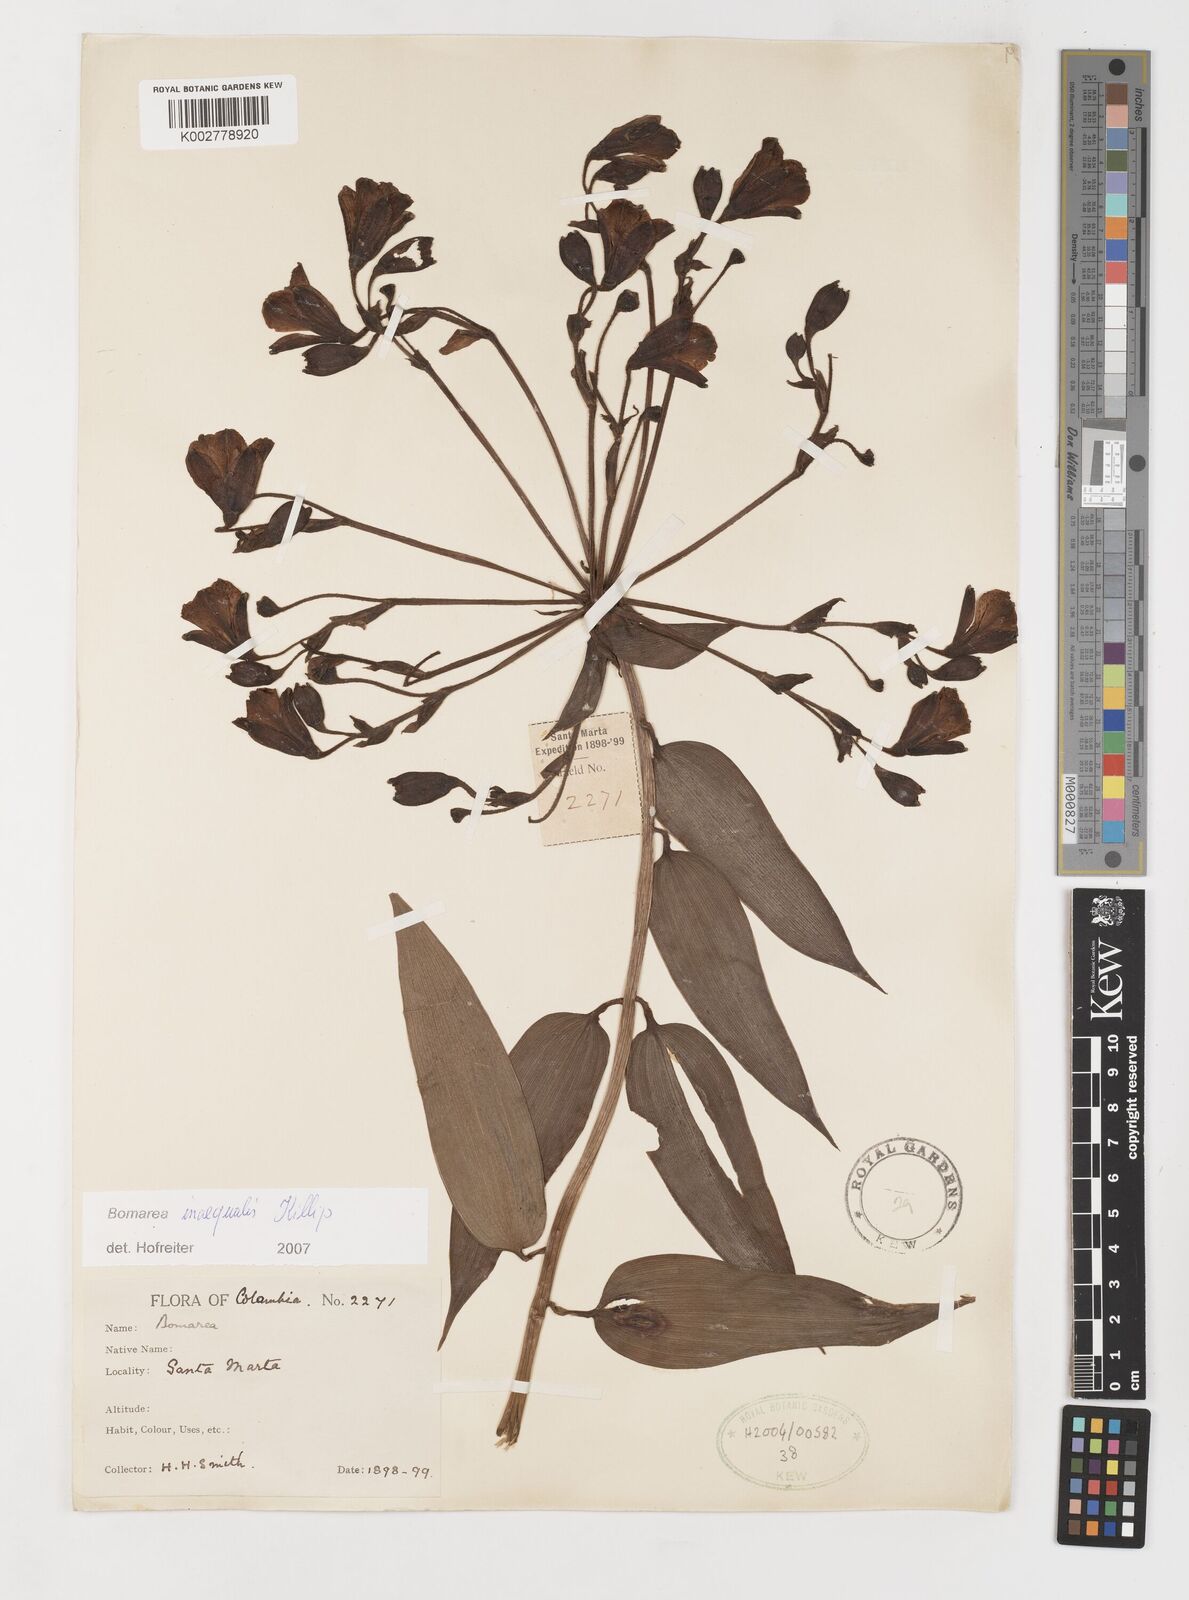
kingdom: Plantae
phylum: Tracheophyta
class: Liliopsida
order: Liliales
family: Alstroemeriaceae
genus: Bomarea
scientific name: Bomarea inaequalis
